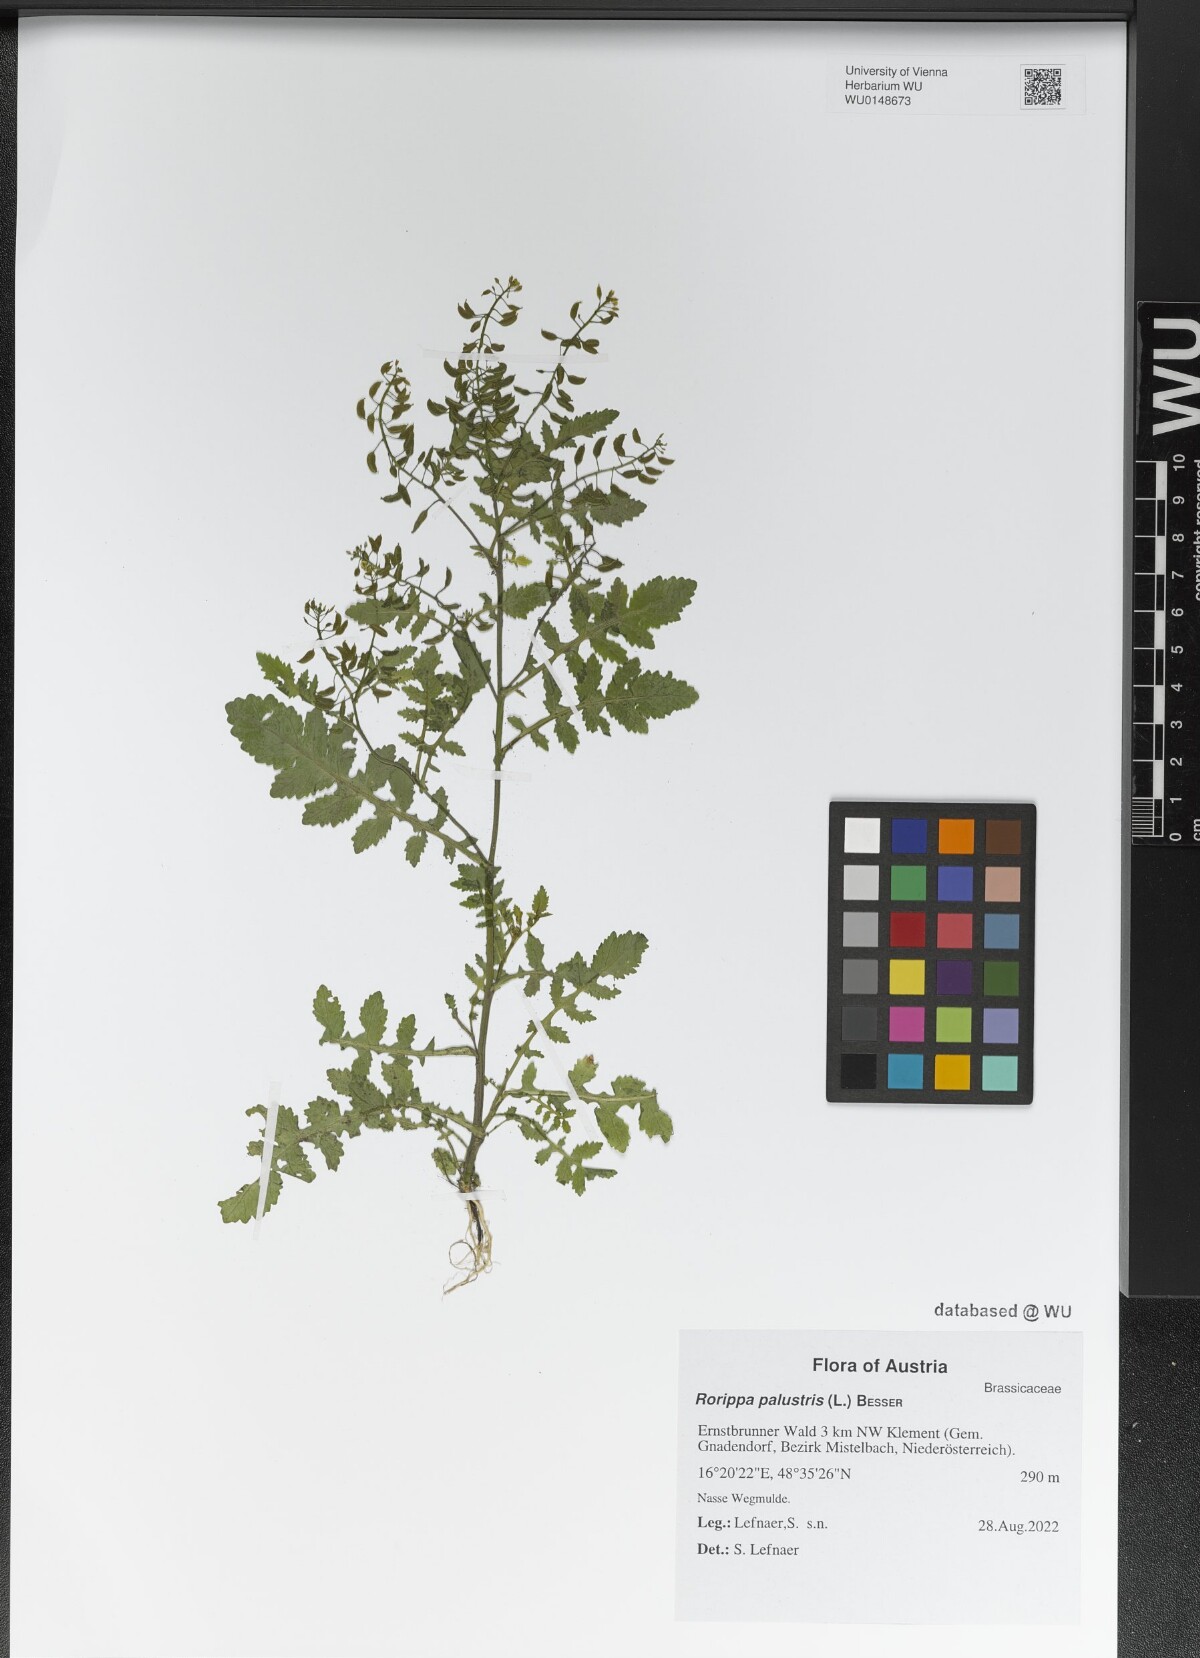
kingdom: Plantae
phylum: Tracheophyta
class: Magnoliopsida
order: Brassicales
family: Brassicaceae
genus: Rorippa
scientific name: Rorippa palustris
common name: Marsh yellow-cress
